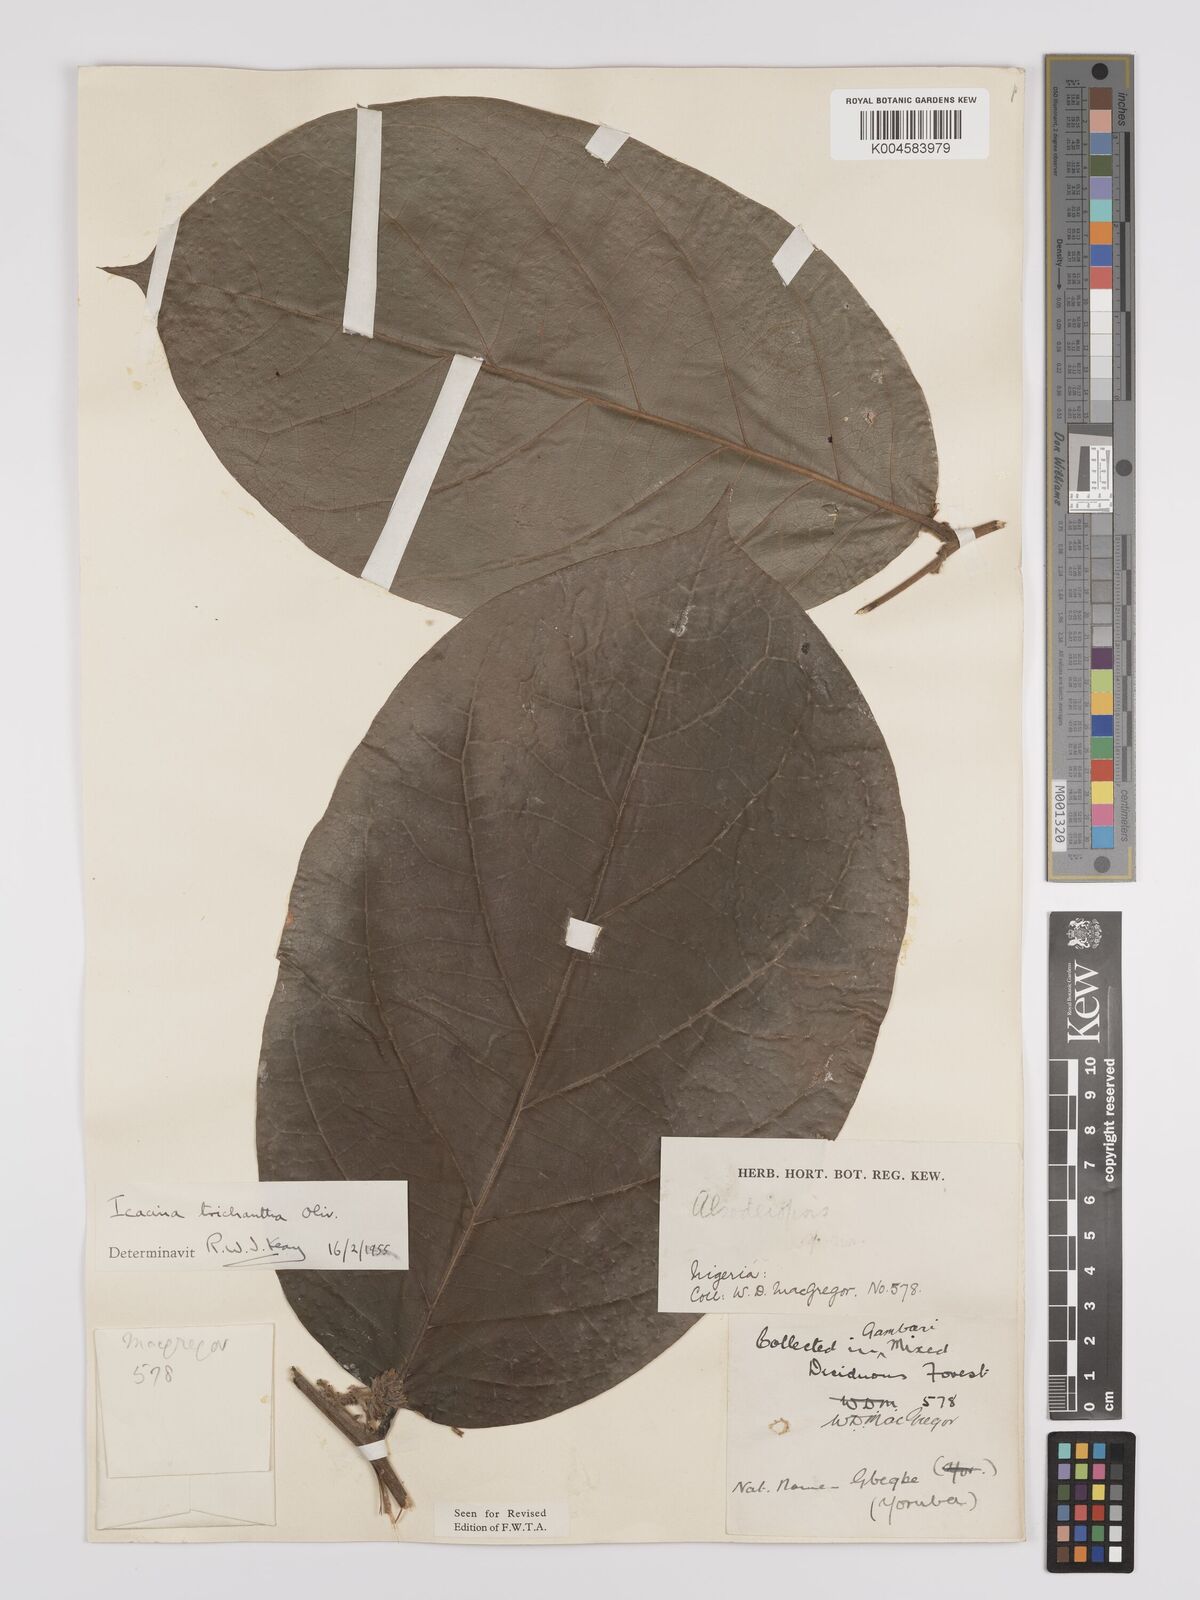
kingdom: Plantae
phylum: Tracheophyta
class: Magnoliopsida
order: Icacinales
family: Icacinaceae
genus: Icacina
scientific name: Icacina trichantha
